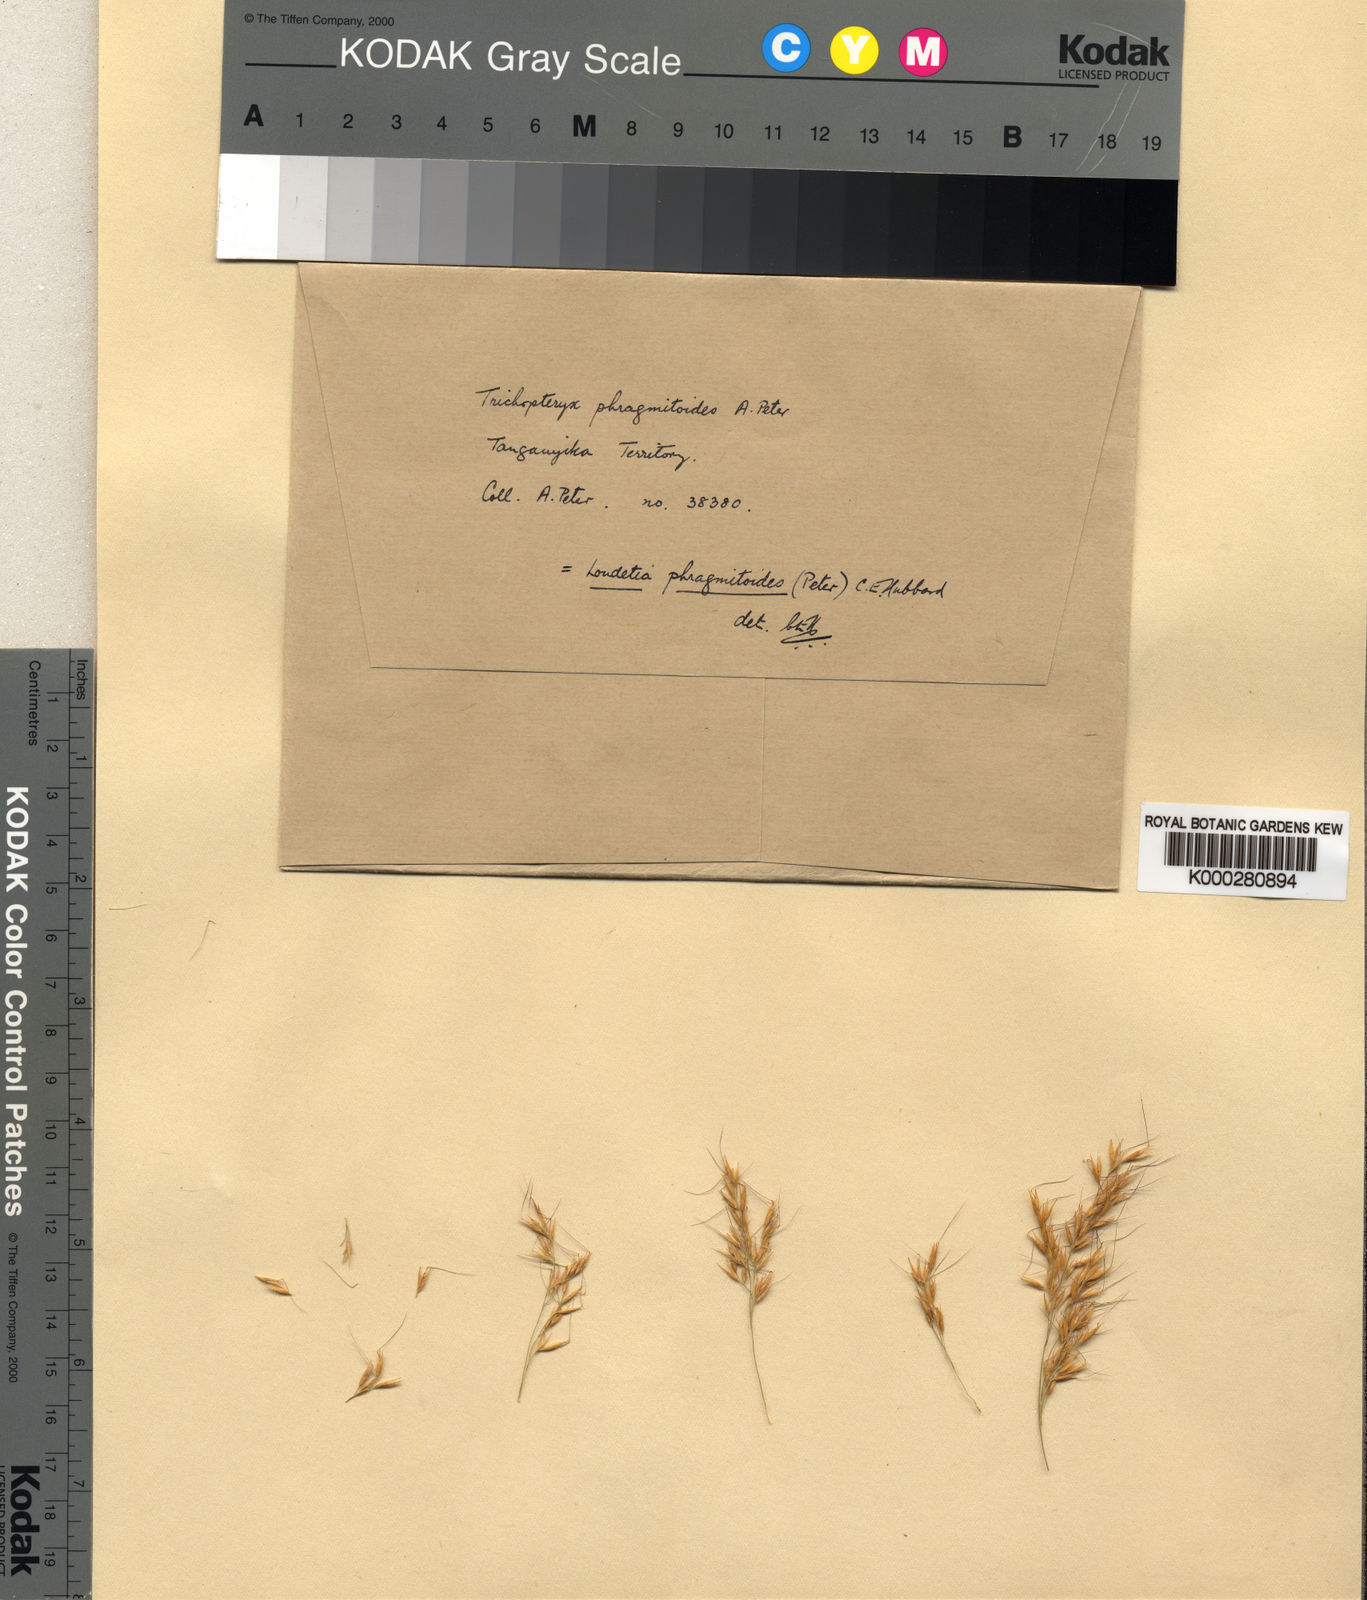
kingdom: Plantae
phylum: Tracheophyta
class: Liliopsida
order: Poales
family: Poaceae
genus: Loudetia
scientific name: Loudetia phragmitoides
